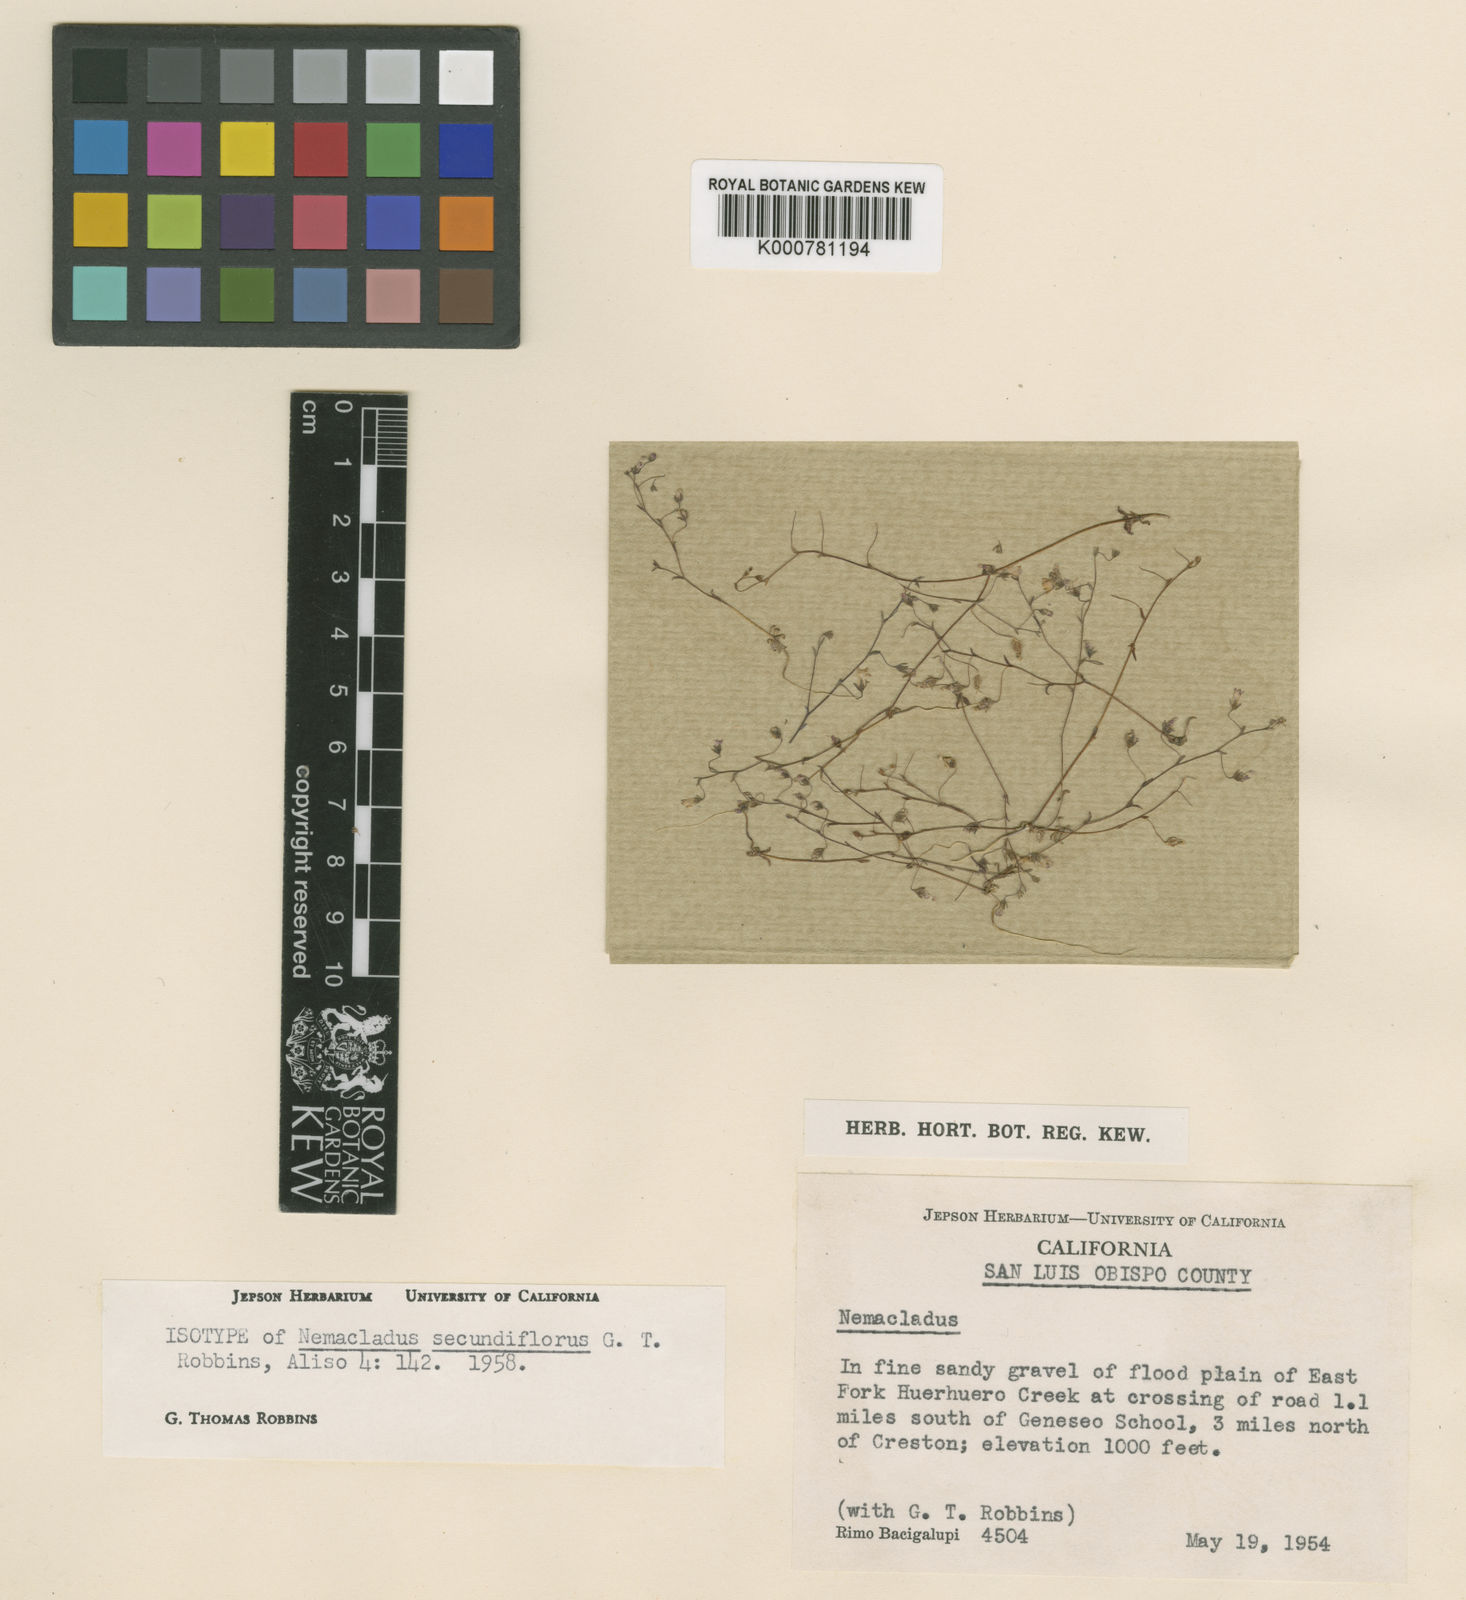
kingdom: Plantae
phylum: Tracheophyta
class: Magnoliopsida
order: Asterales
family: Campanulaceae
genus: Nemacladus
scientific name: Nemacladus secundiflorus
